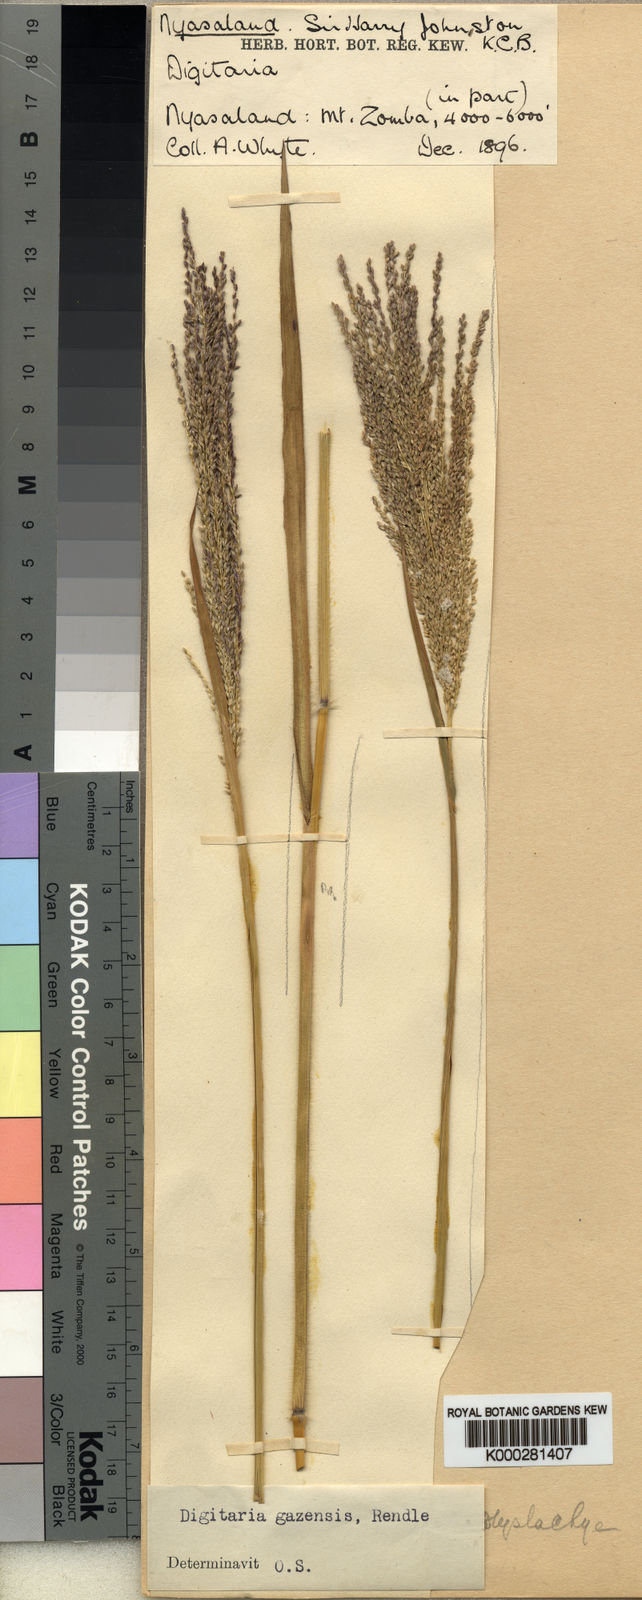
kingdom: Plantae
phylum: Tracheophyta
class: Liliopsida
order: Poales
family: Poaceae
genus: Digitaria
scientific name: Digitaria gazensis
